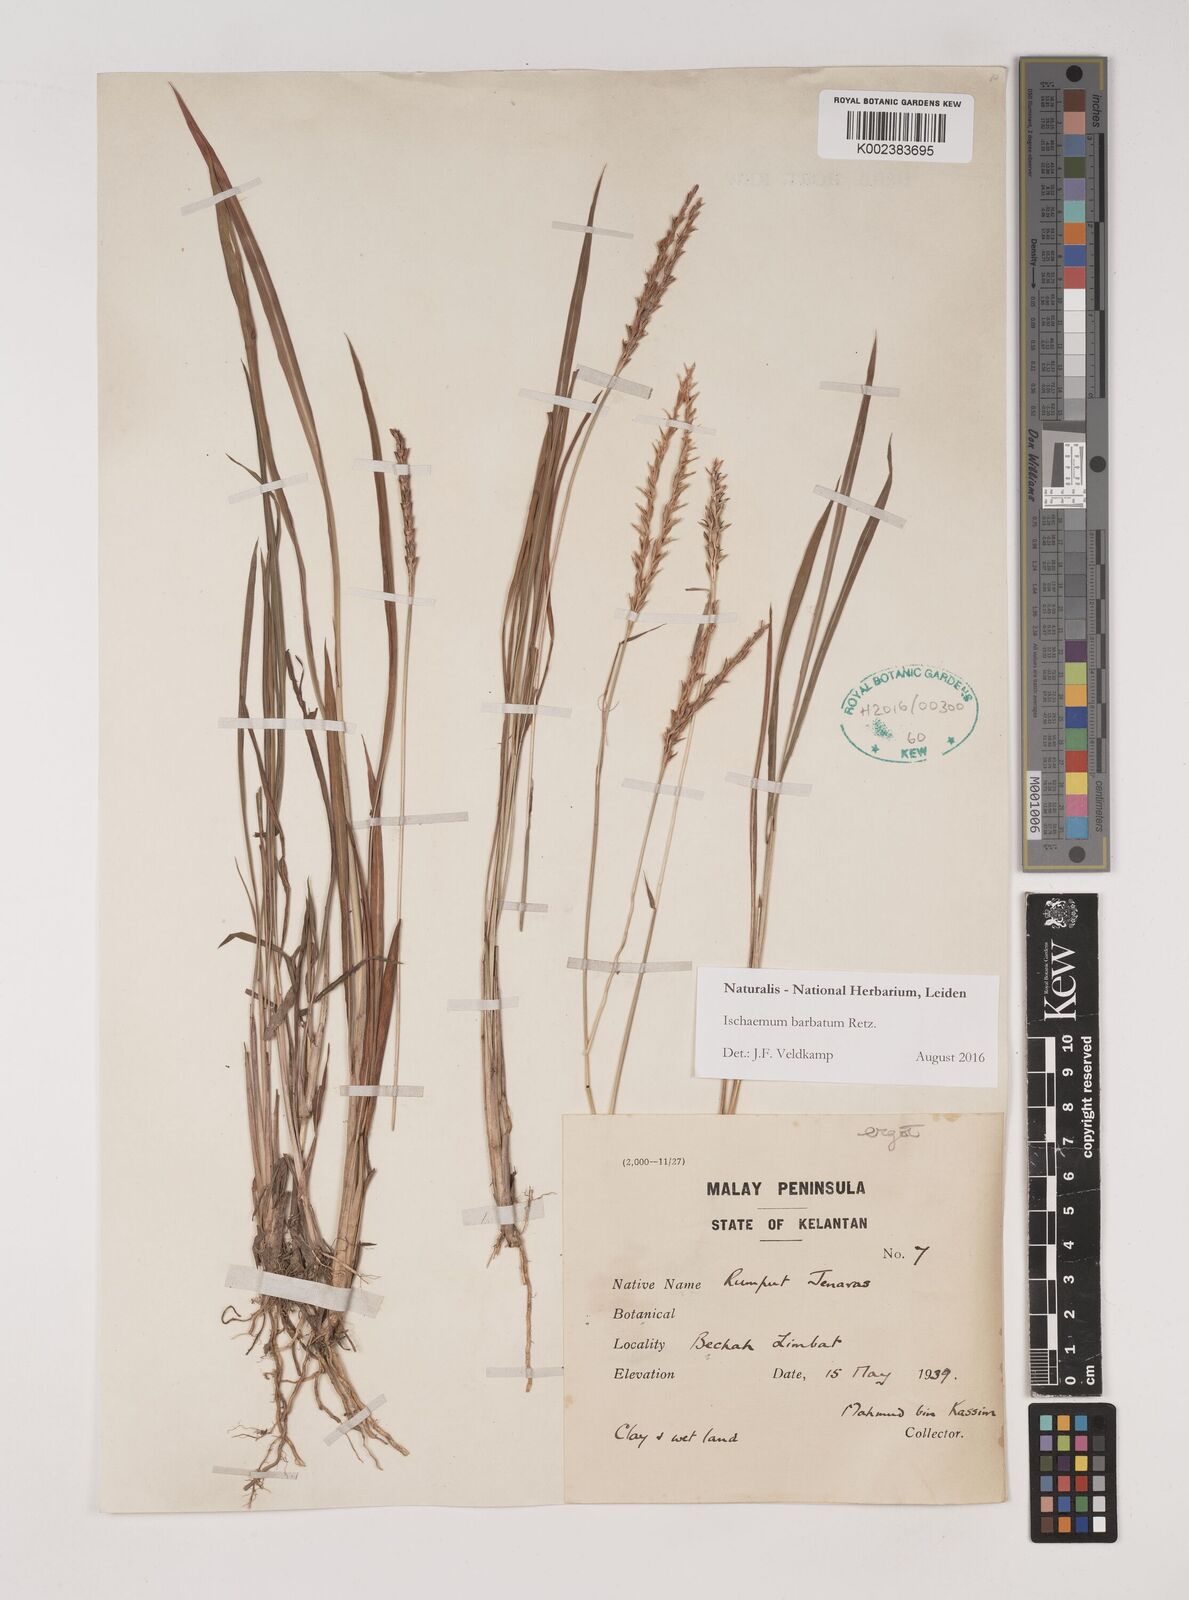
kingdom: Plantae
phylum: Tracheophyta
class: Liliopsida
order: Poales
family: Poaceae
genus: Ischaemum
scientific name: Ischaemum barbatum
